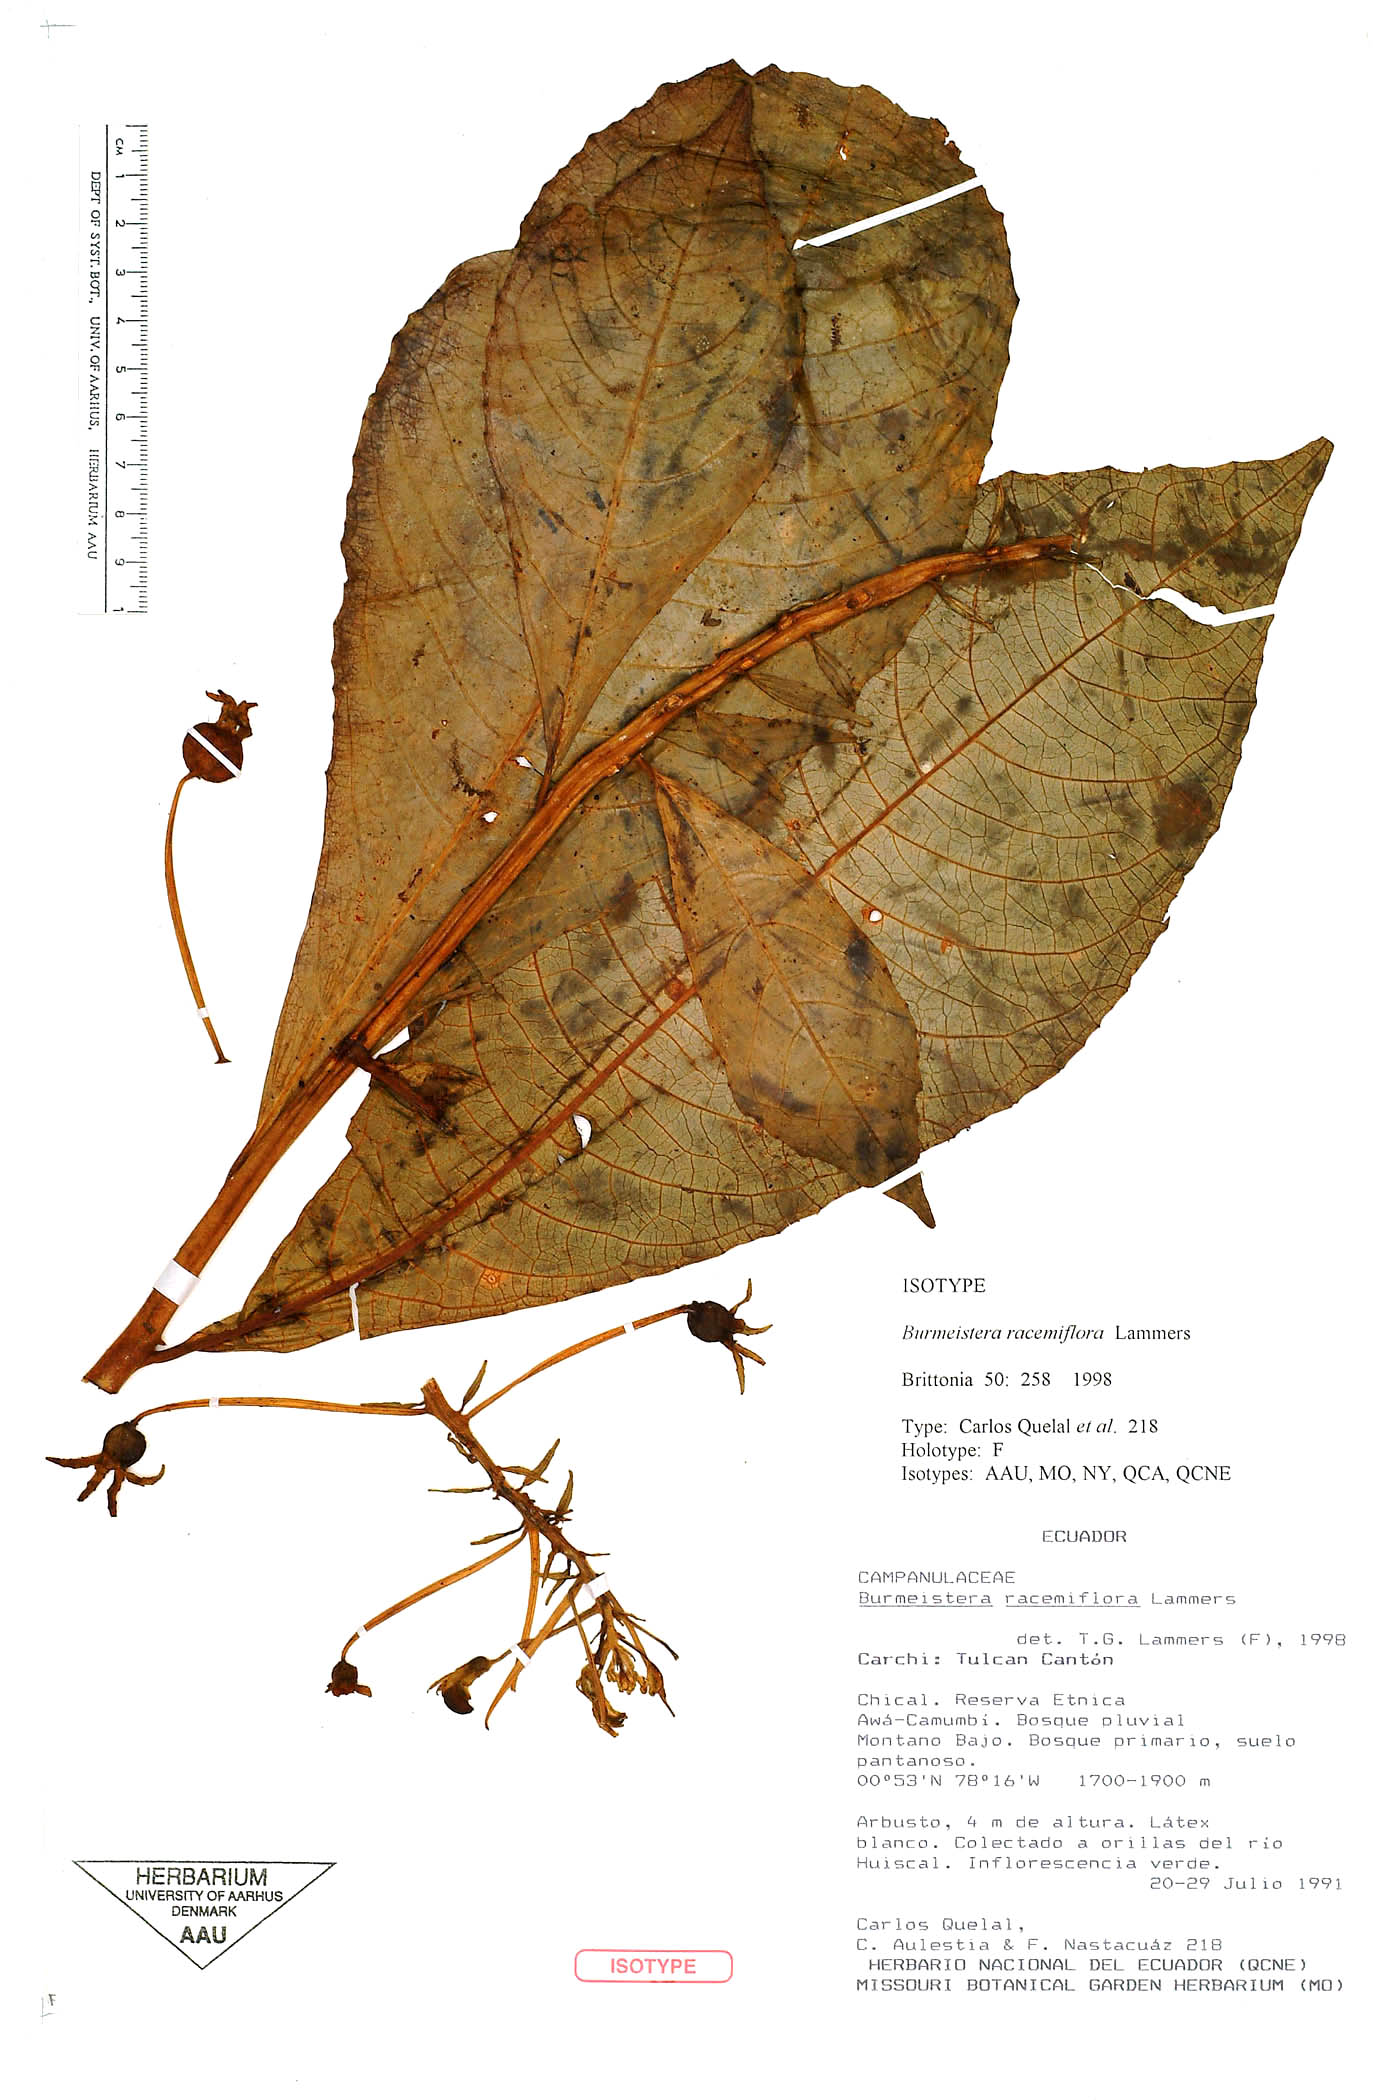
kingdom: Plantae
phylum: Tracheophyta
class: Magnoliopsida
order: Asterales
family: Campanulaceae
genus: Burmeistera
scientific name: Burmeistera racemiflora
